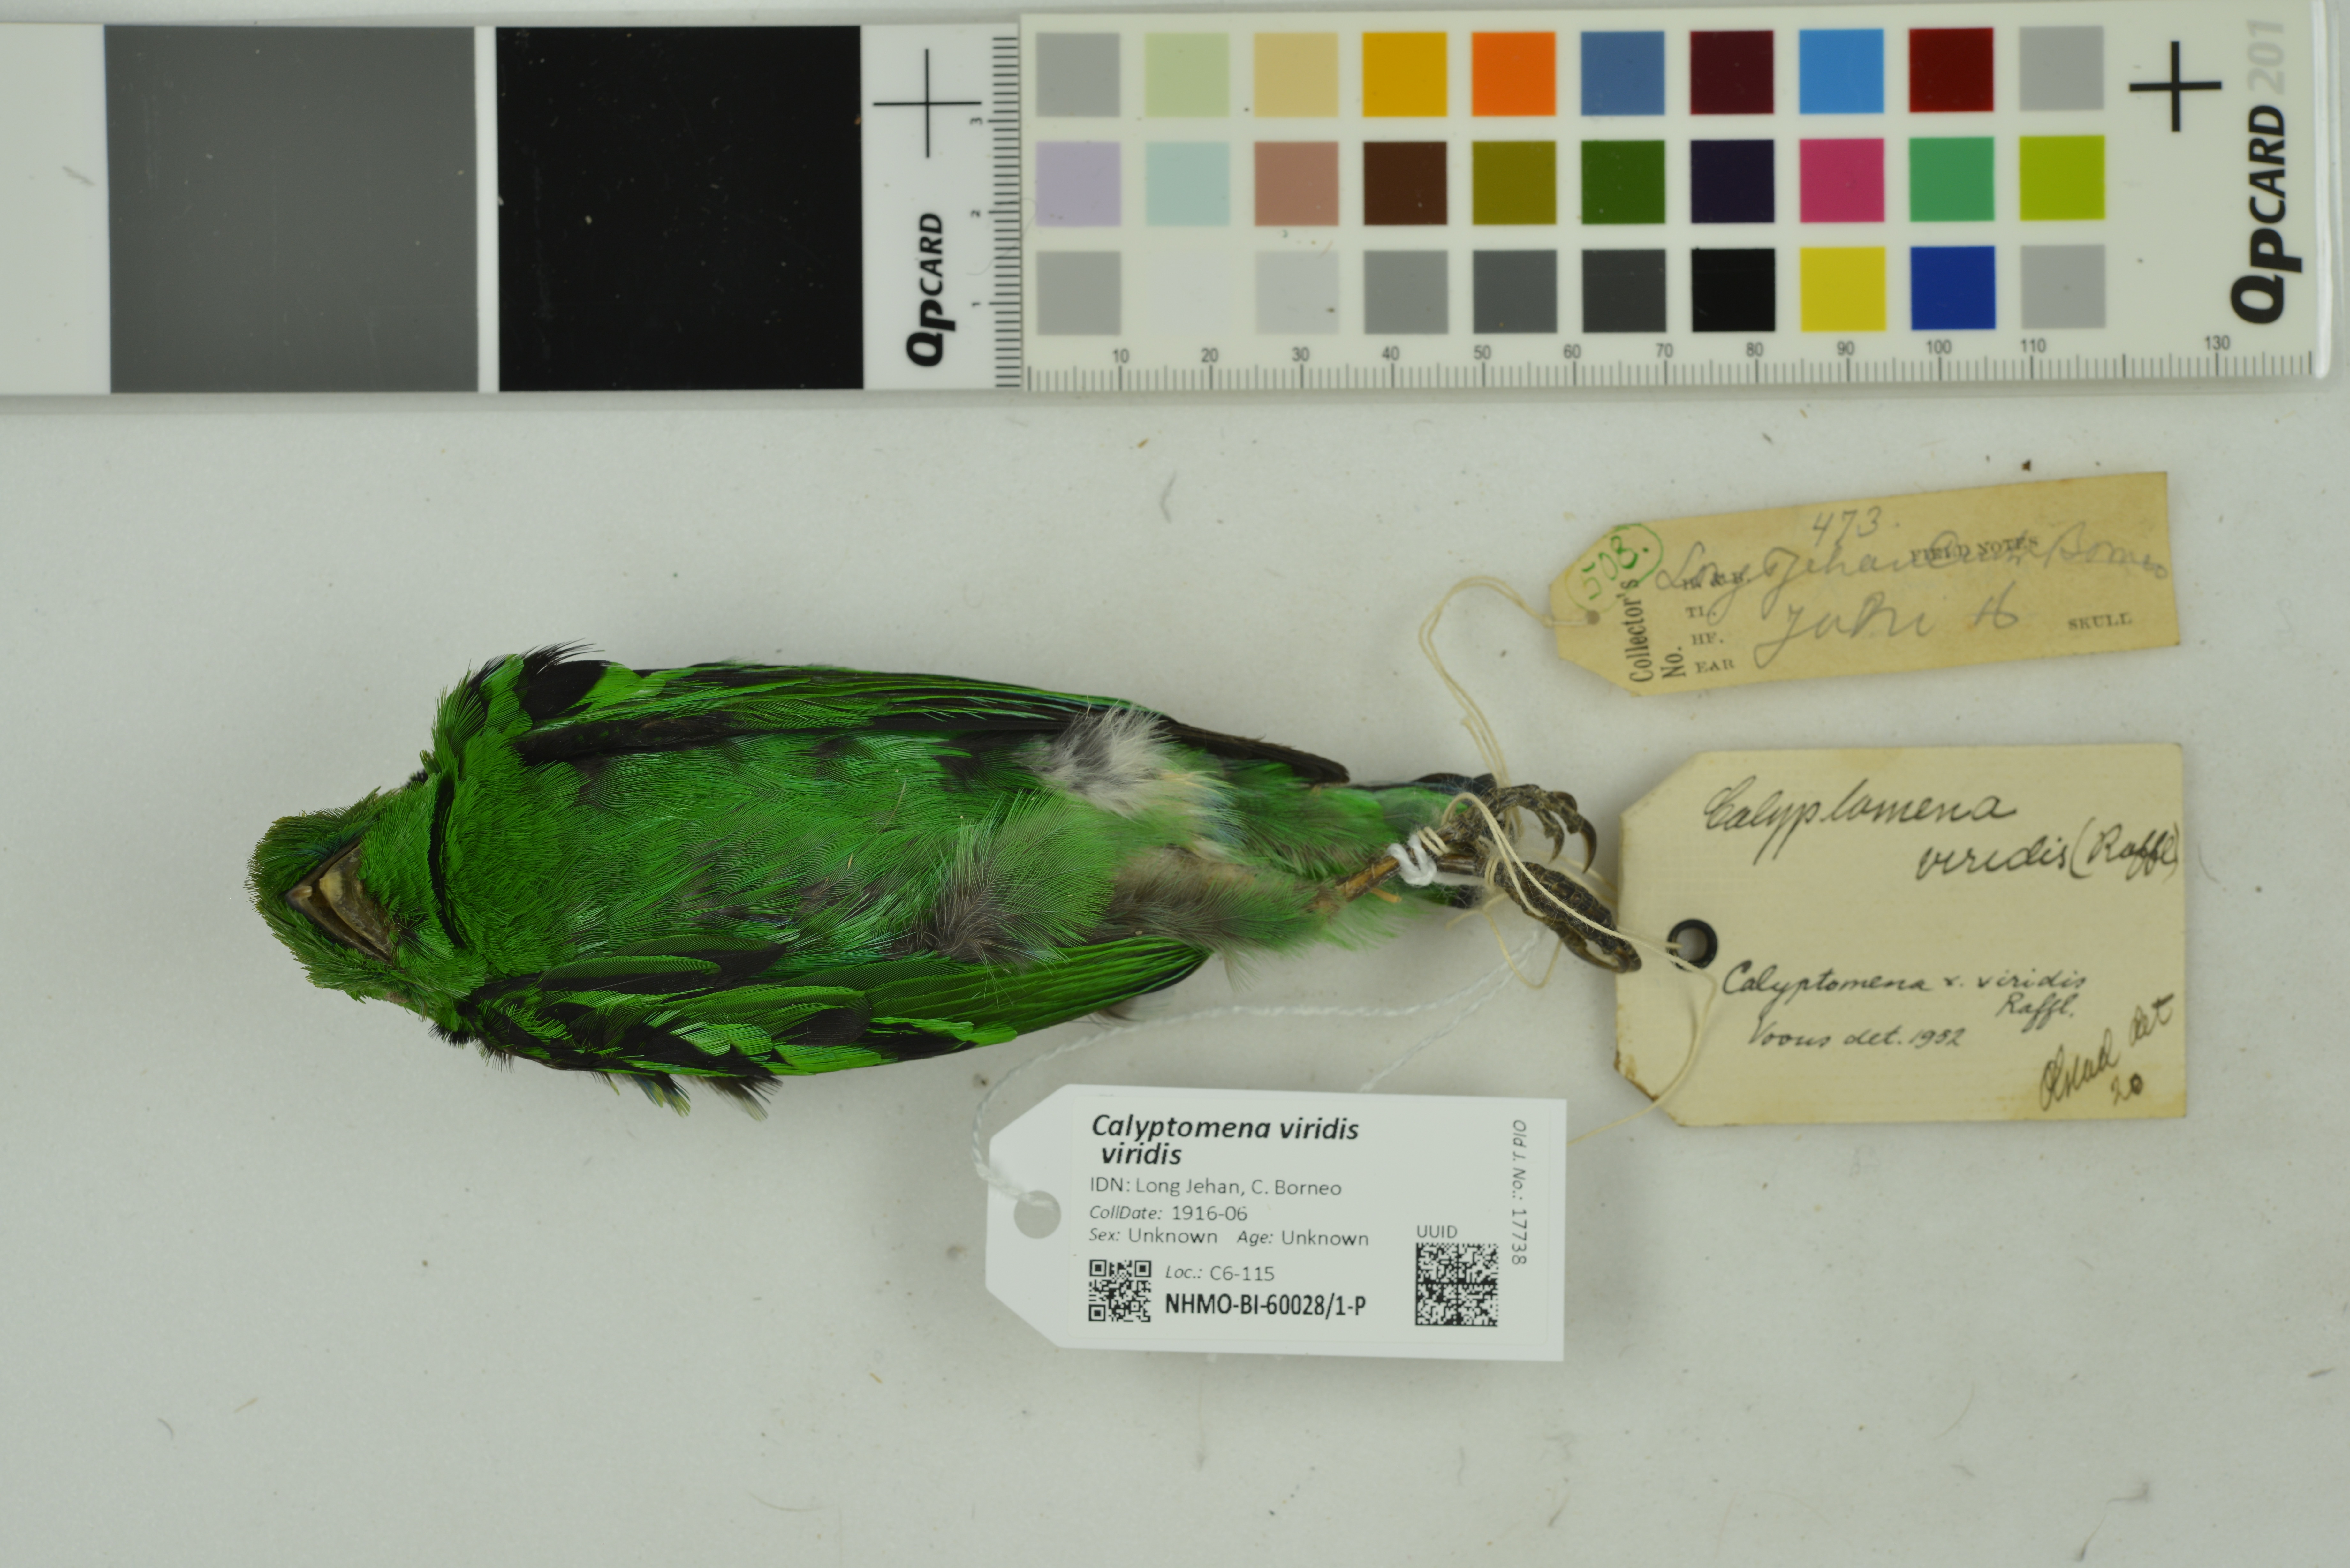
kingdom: Animalia
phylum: Chordata
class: Aves
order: Passeriformes
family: Eurylaimidae
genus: Calyptomena
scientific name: Calyptomena viridis
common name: Green broadbill
